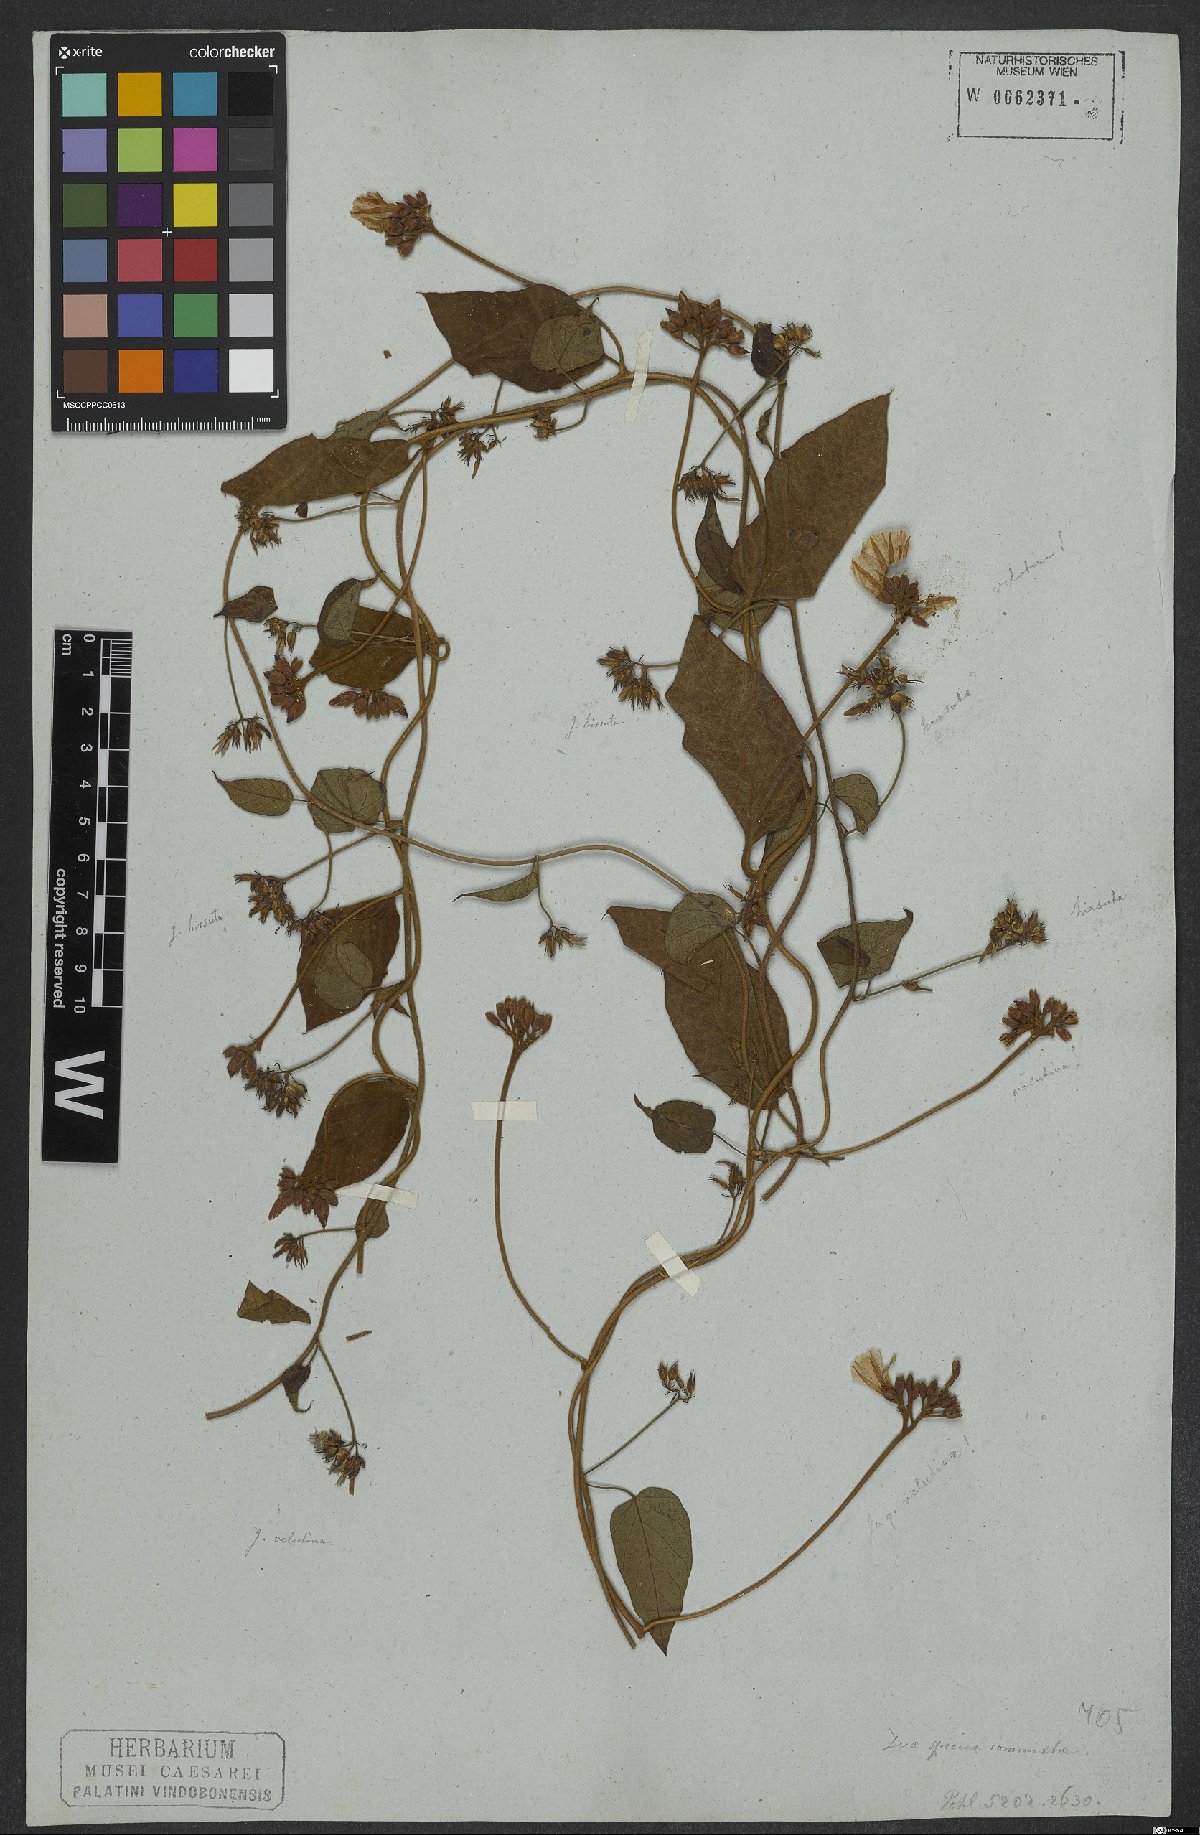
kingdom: Plantae
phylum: Tracheophyta
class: Magnoliopsida
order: Solanales
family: Convolvulaceae
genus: Jacquemontia
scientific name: Jacquemontia velutina
